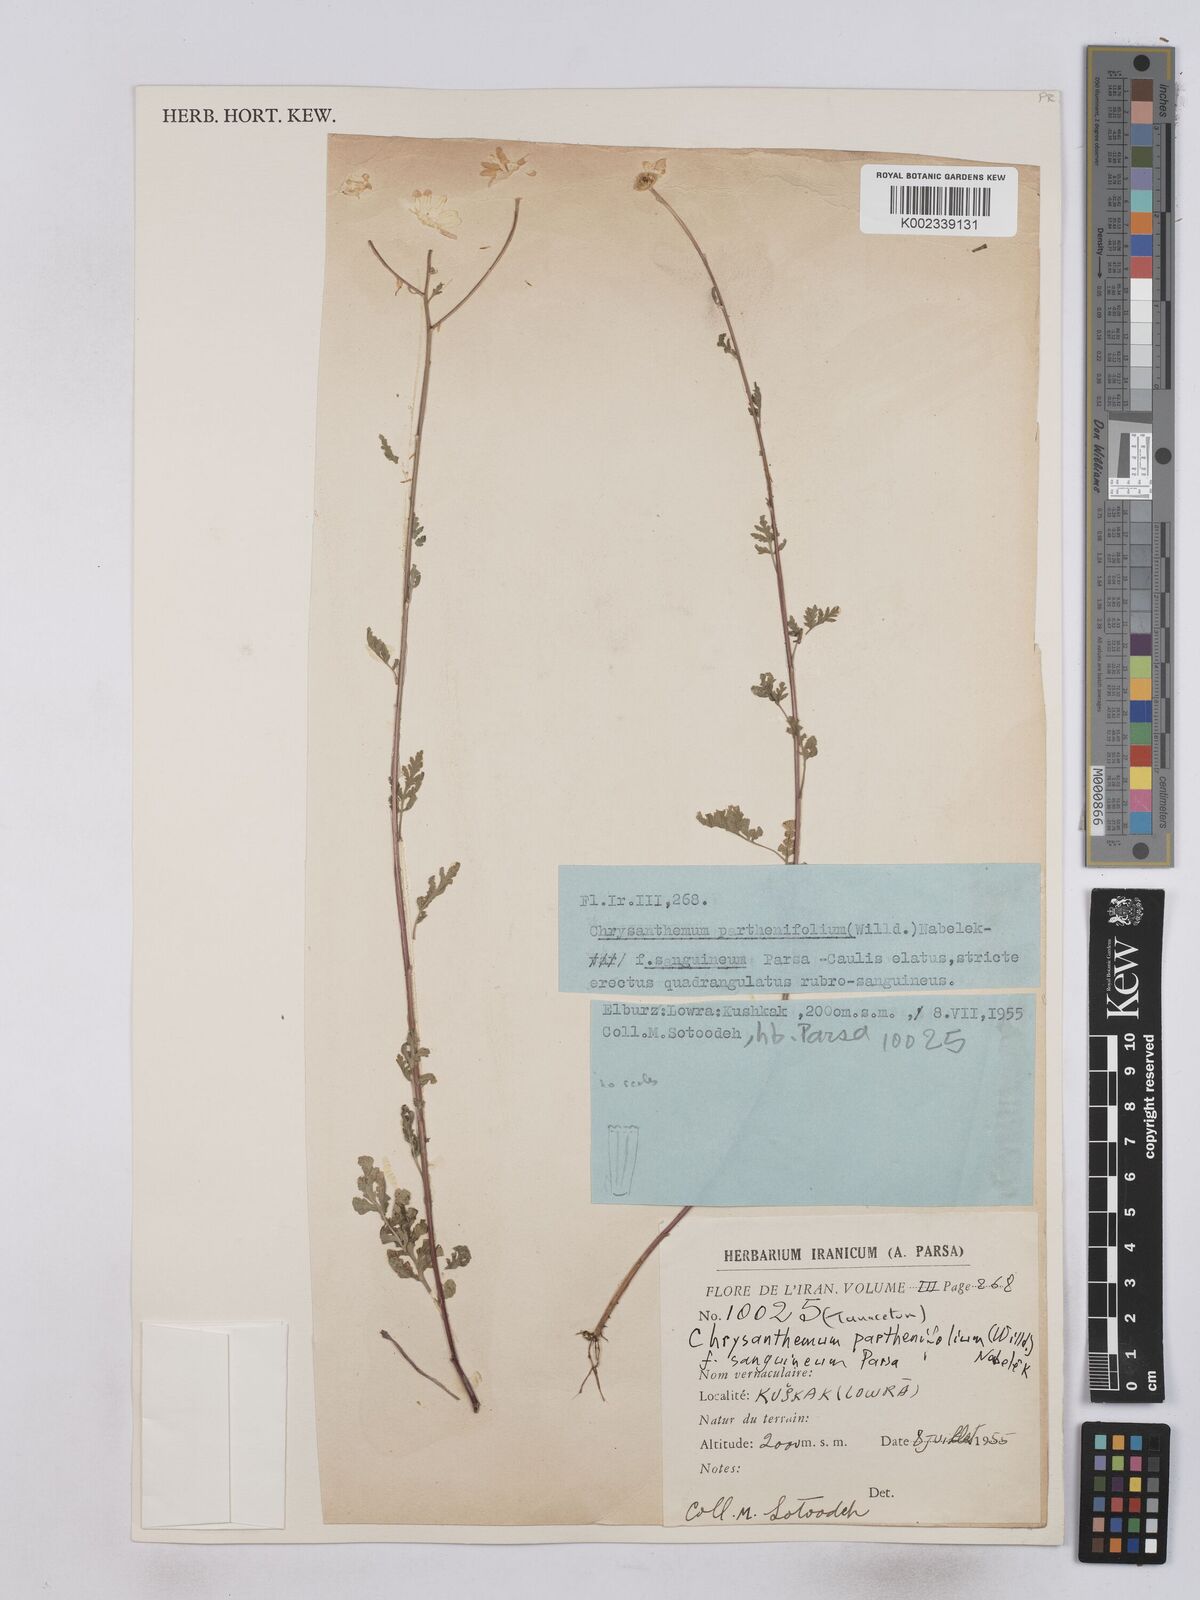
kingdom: Plantae
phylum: Tracheophyta
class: Magnoliopsida
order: Asterales
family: Asteraceae
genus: Tanacetum
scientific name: Tanacetum partheniifolium
